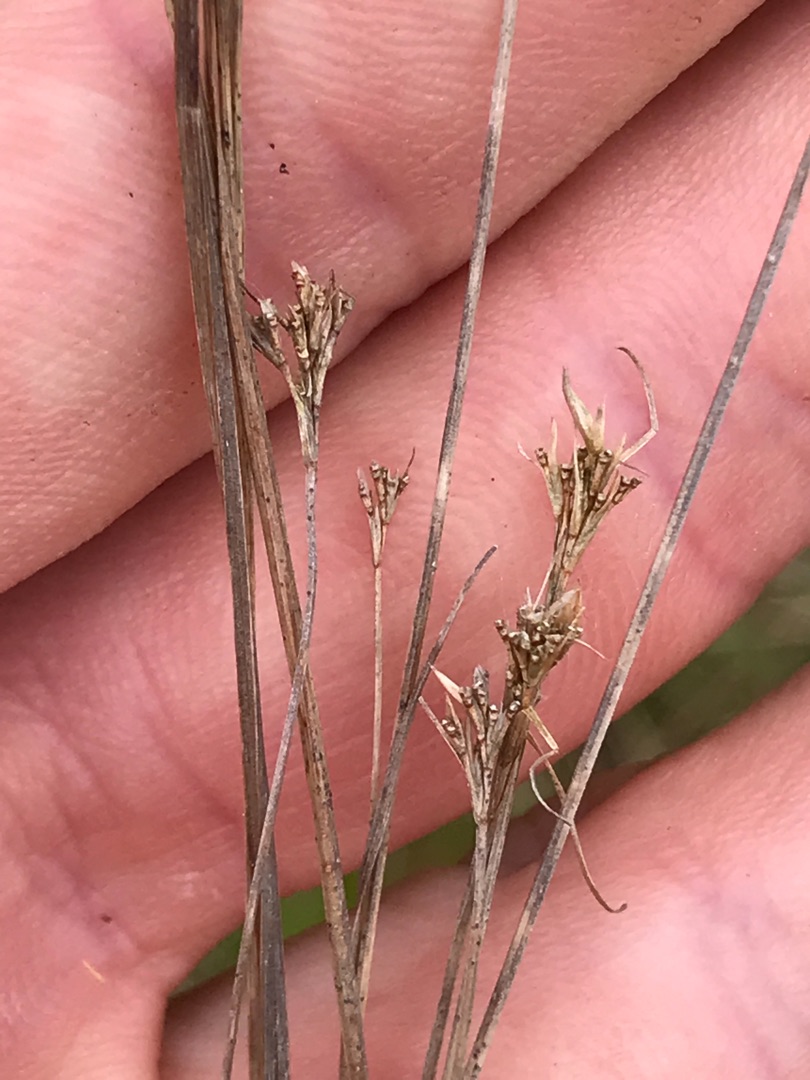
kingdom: Plantae
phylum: Tracheophyta
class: Liliopsida
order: Poales
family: Cyperaceae
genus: Rhynchospora
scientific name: Rhynchospora alba
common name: Hvid næbfrø
